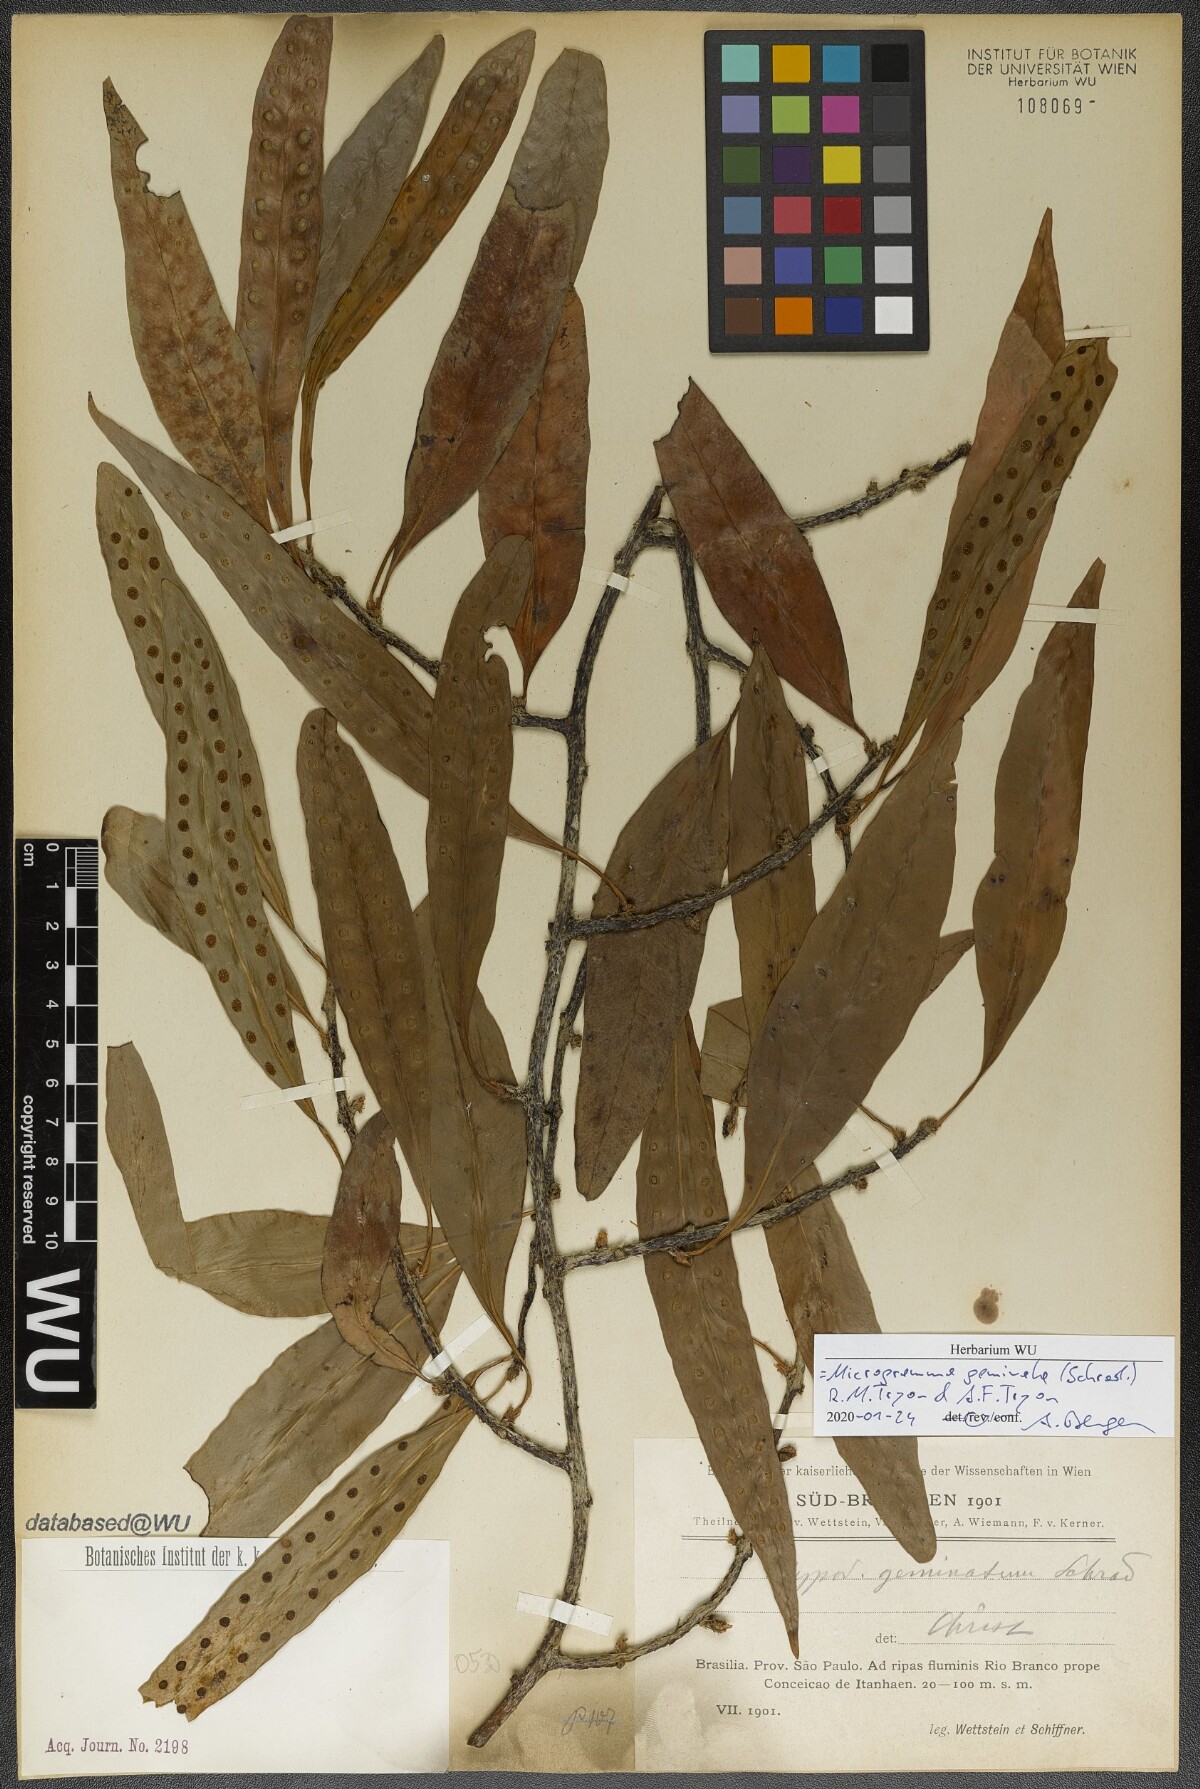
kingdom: Plantae
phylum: Tracheophyta
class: Polypodiopsida
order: Polypodiales
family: Polypodiaceae
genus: Microgramma
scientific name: Microgramma geminata
